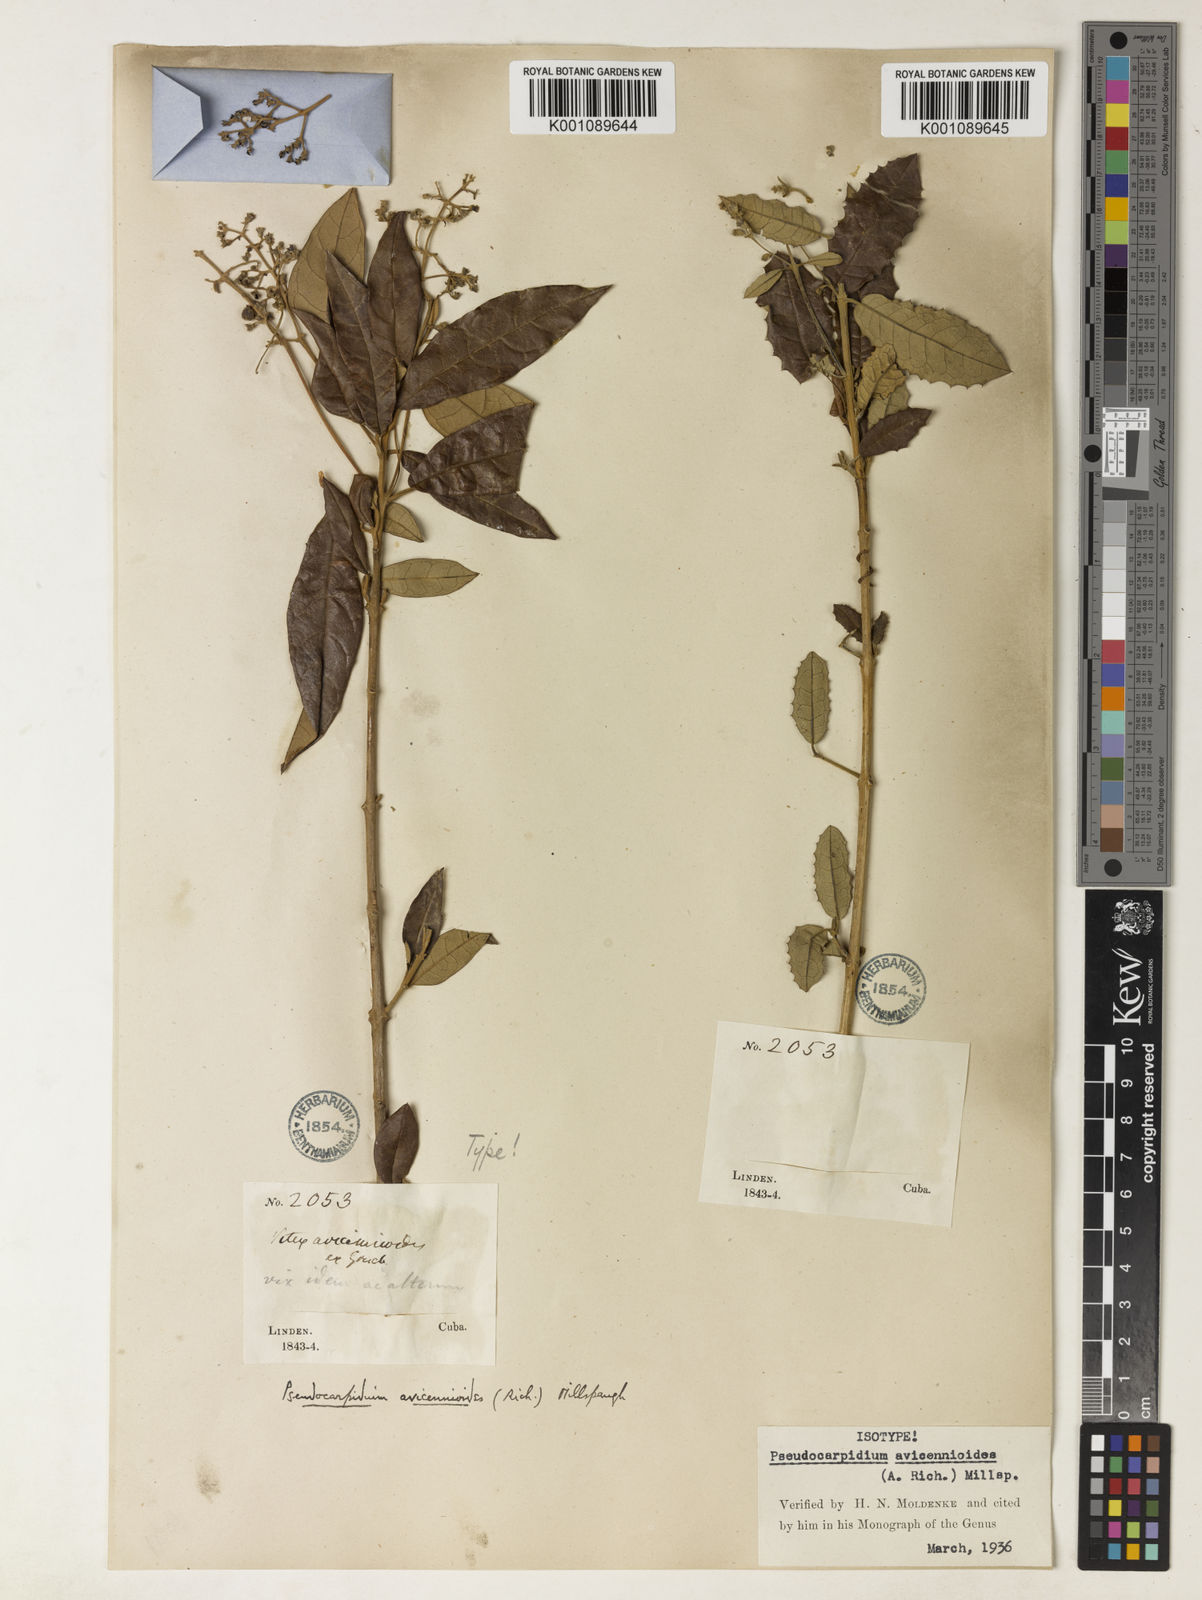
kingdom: Plantae
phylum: Tracheophyta
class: Magnoliopsida
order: Lamiales
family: Lamiaceae
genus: Pseudocarpidium
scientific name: Pseudocarpidium avicennioides
